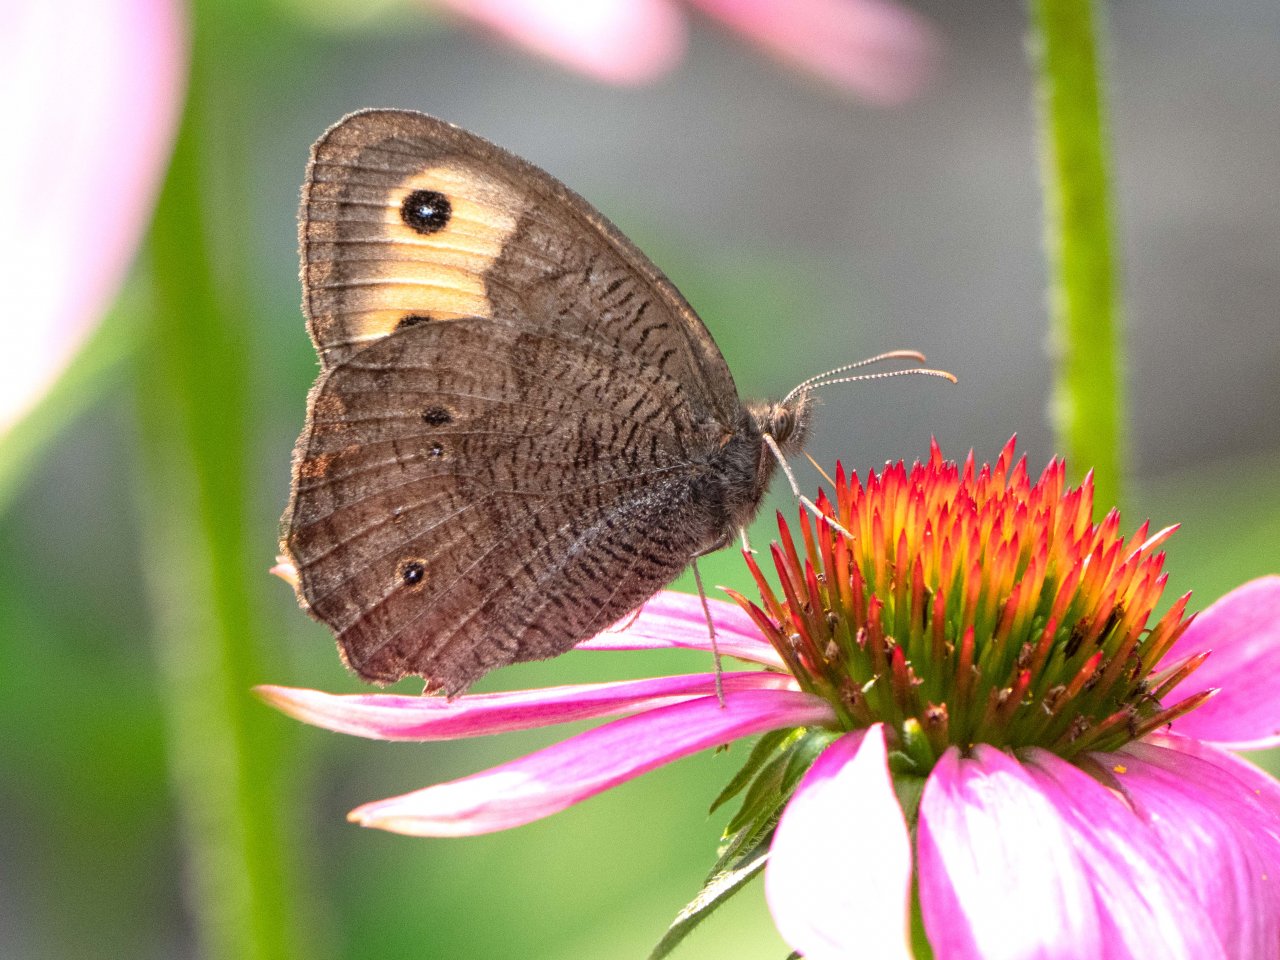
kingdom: Animalia
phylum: Arthropoda
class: Insecta
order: Lepidoptera
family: Nymphalidae
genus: Cercyonis
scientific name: Cercyonis pegala
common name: Common Wood-Nymph
